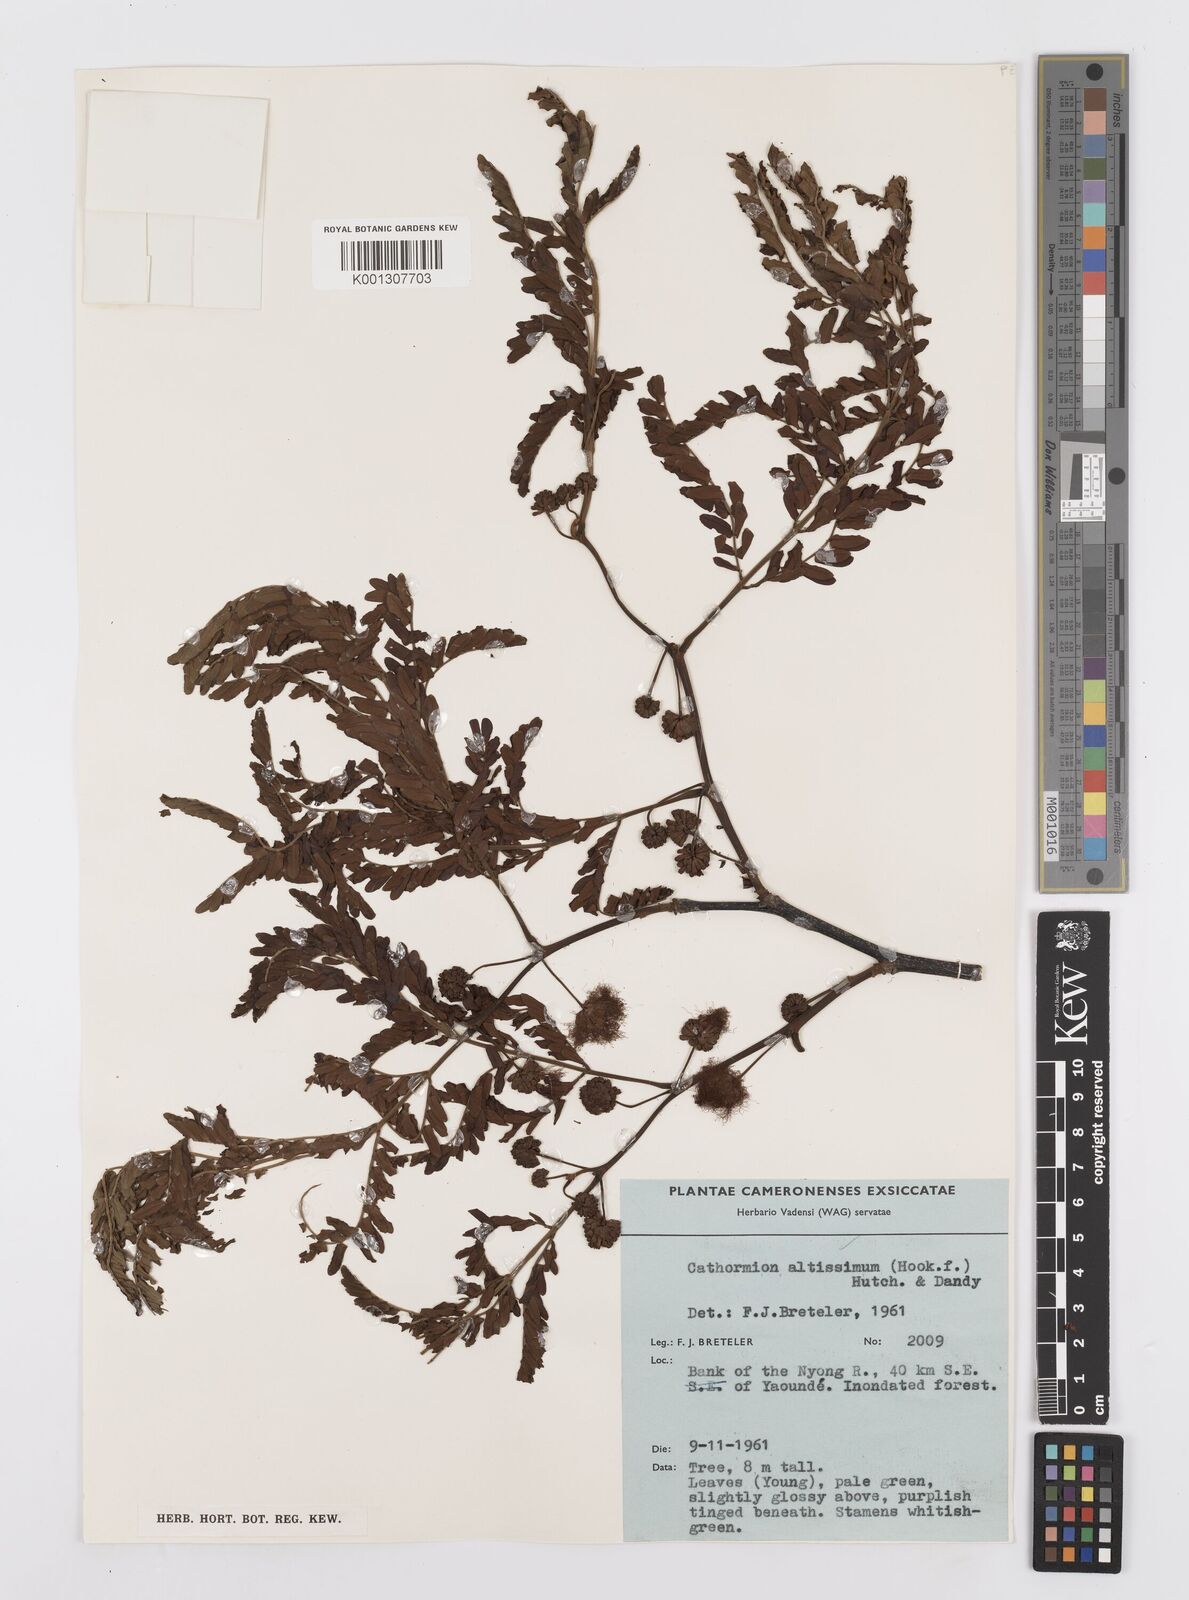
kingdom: Plantae
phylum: Tracheophyta
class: Magnoliopsida
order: Fabales
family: Fabaceae
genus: Albizia
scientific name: Albizia altissima
